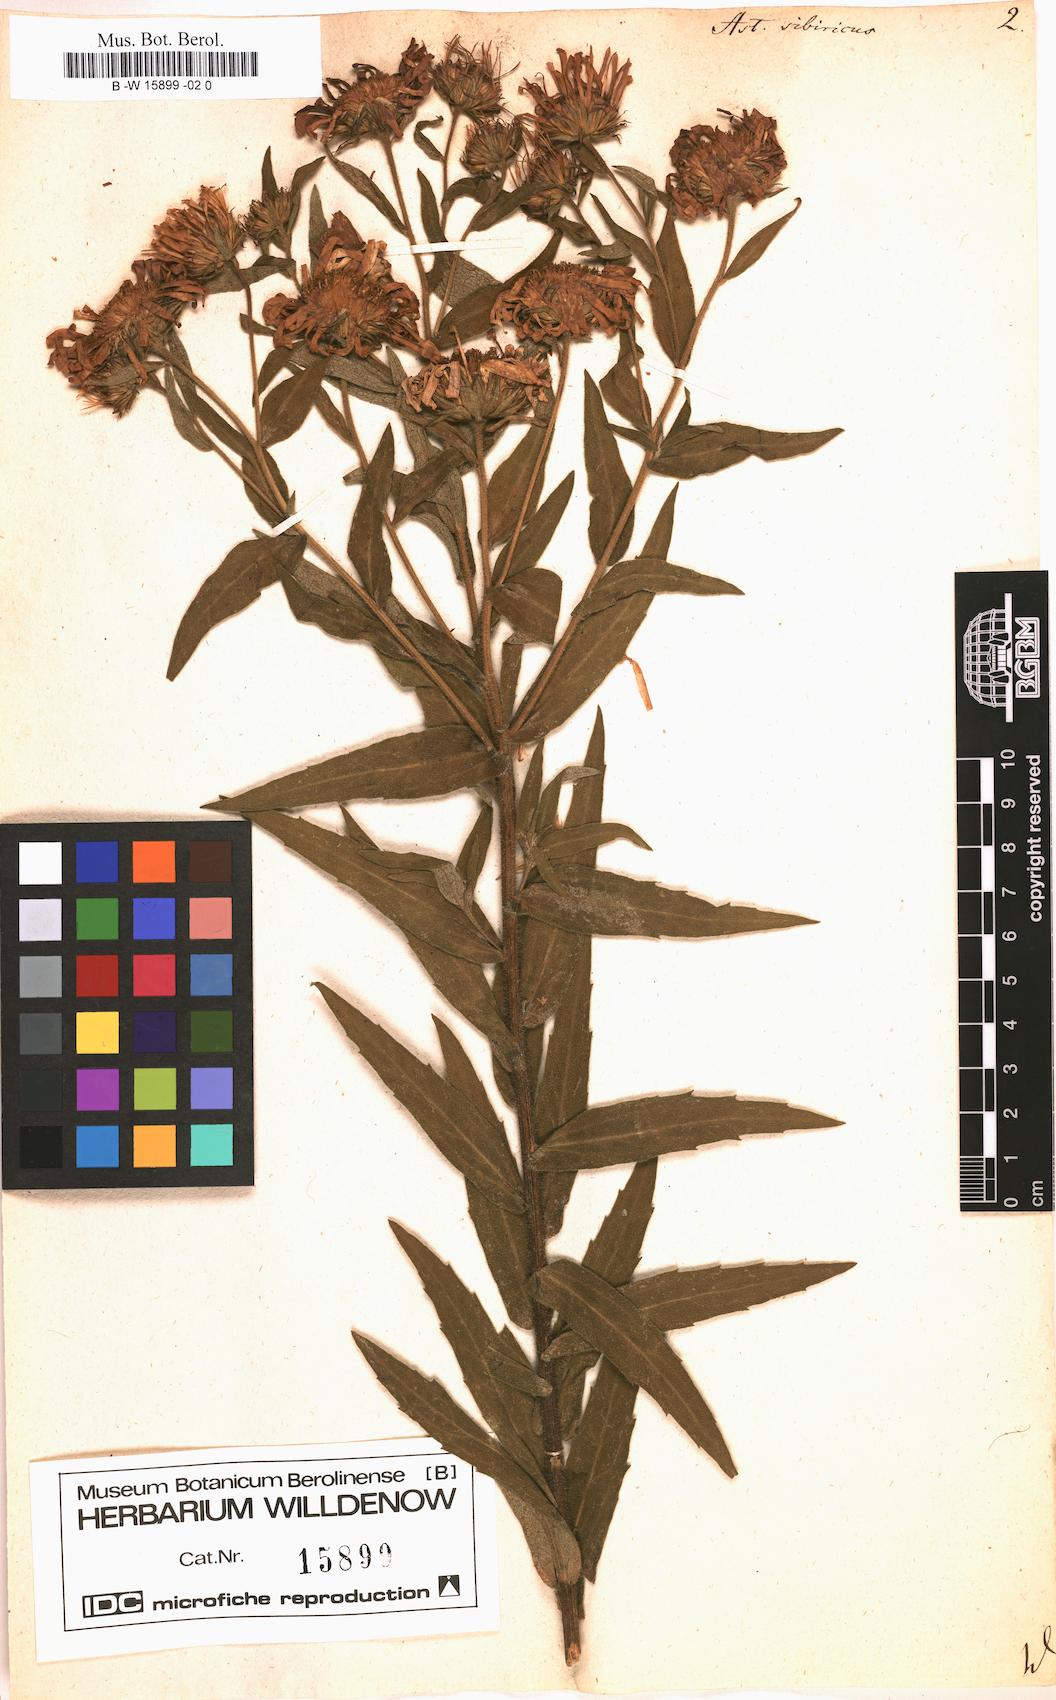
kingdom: Plantae
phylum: Tracheophyta
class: Magnoliopsida
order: Asterales
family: Asteraceae
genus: Eurybia
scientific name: Eurybia sibirica
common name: Arctic aster
